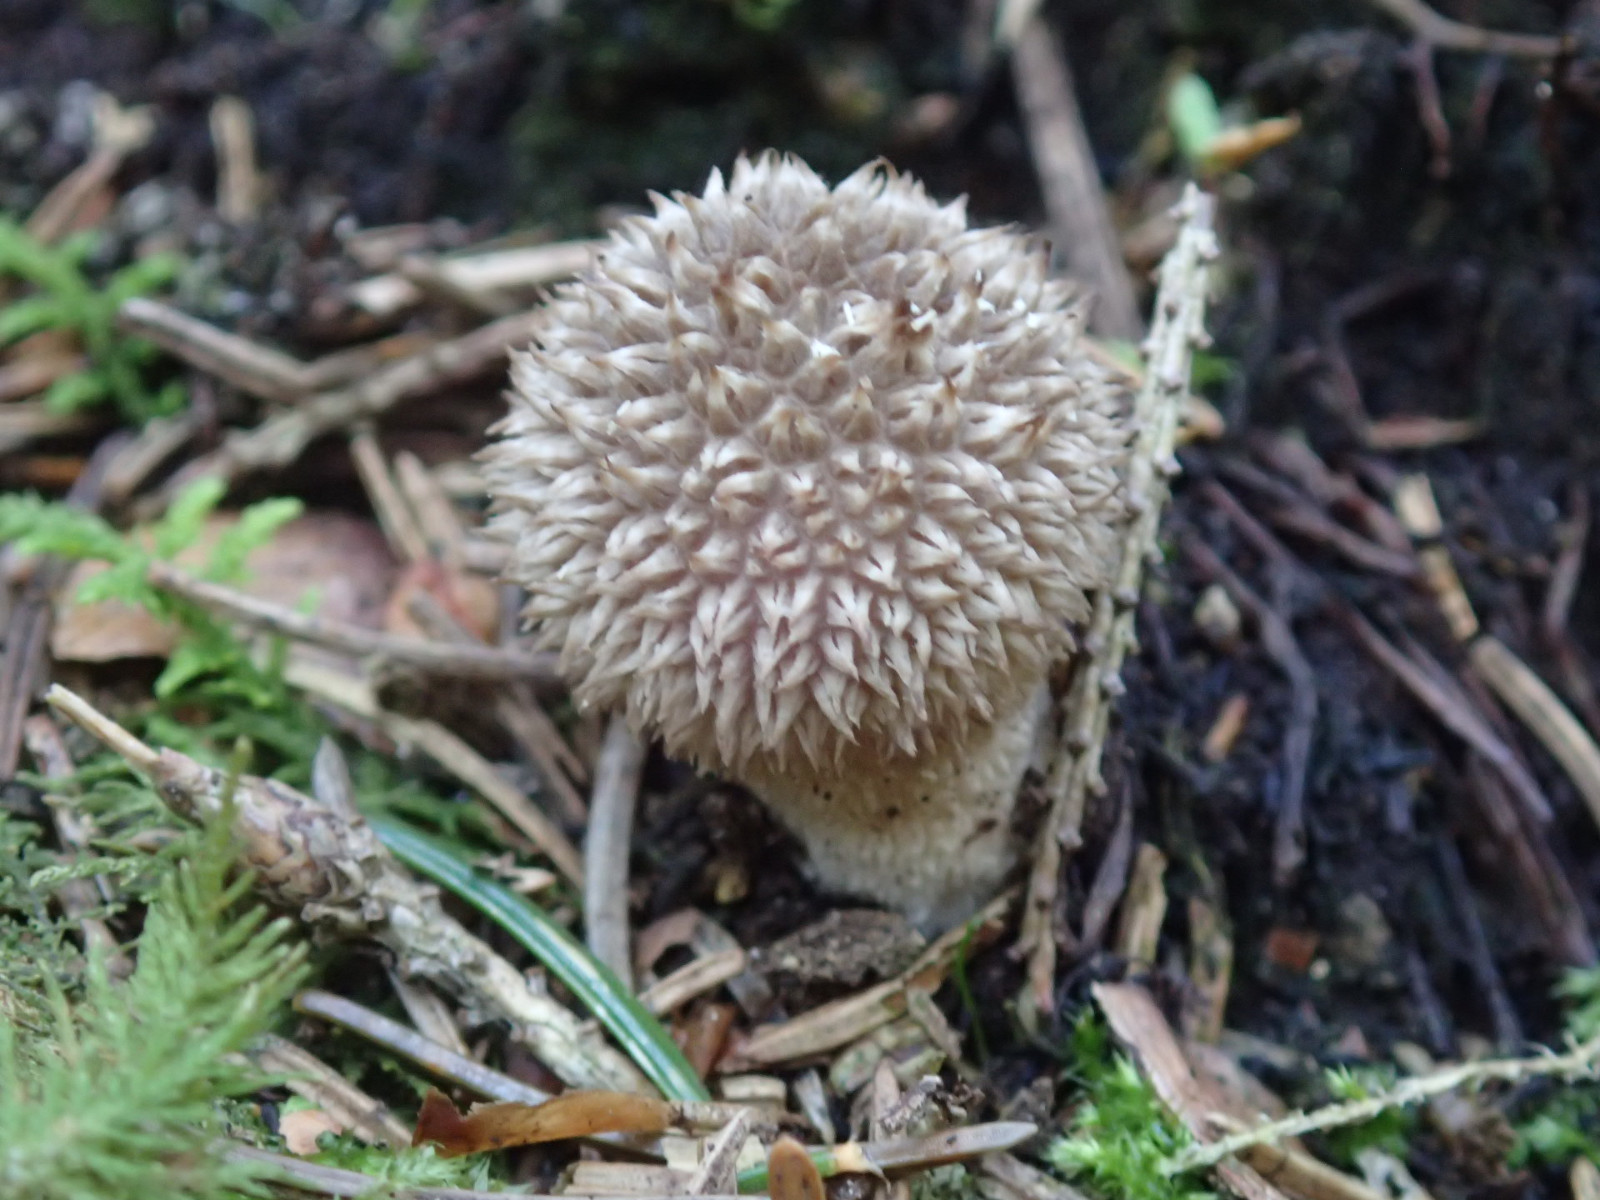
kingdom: Fungi
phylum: Basidiomycota
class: Agaricomycetes
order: Agaricales
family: Lycoperdaceae
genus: Lycoperdon
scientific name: Lycoperdon perlatum
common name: krystal-støvbold
